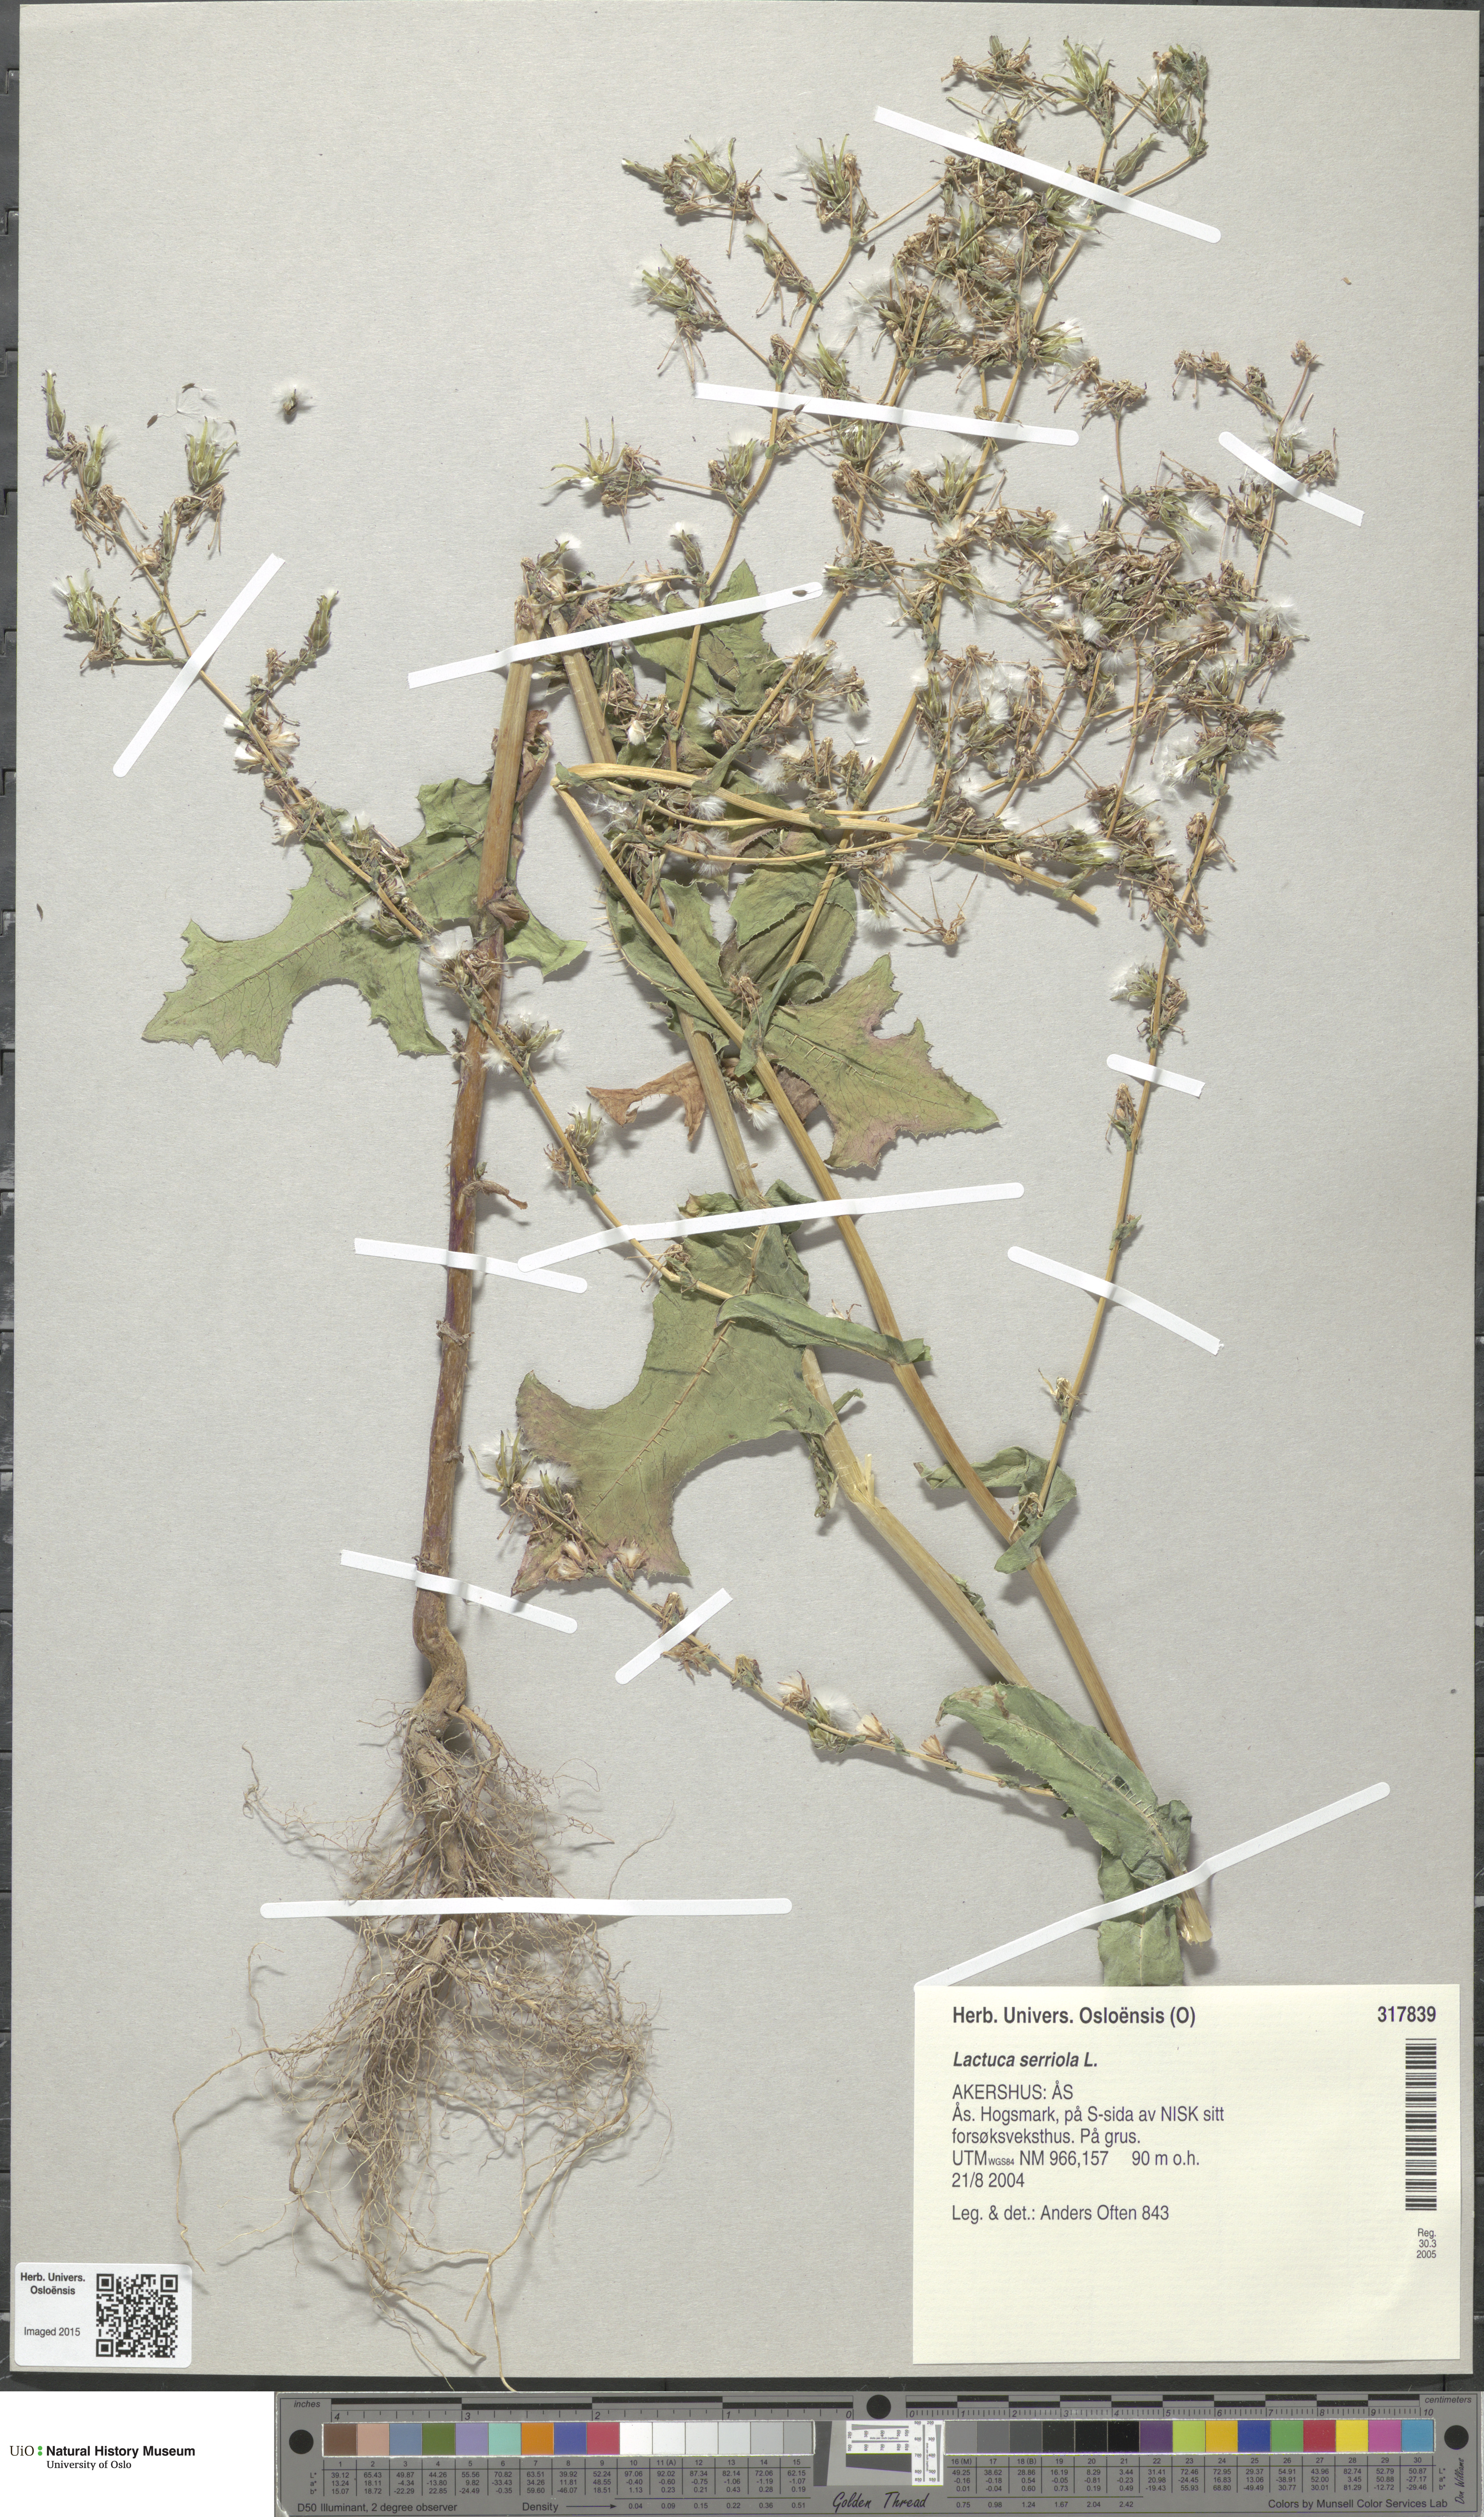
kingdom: Plantae
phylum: Tracheophyta
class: Magnoliopsida
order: Asterales
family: Asteraceae
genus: Lactuca
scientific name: Lactuca serriola
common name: Prickly lettuce
